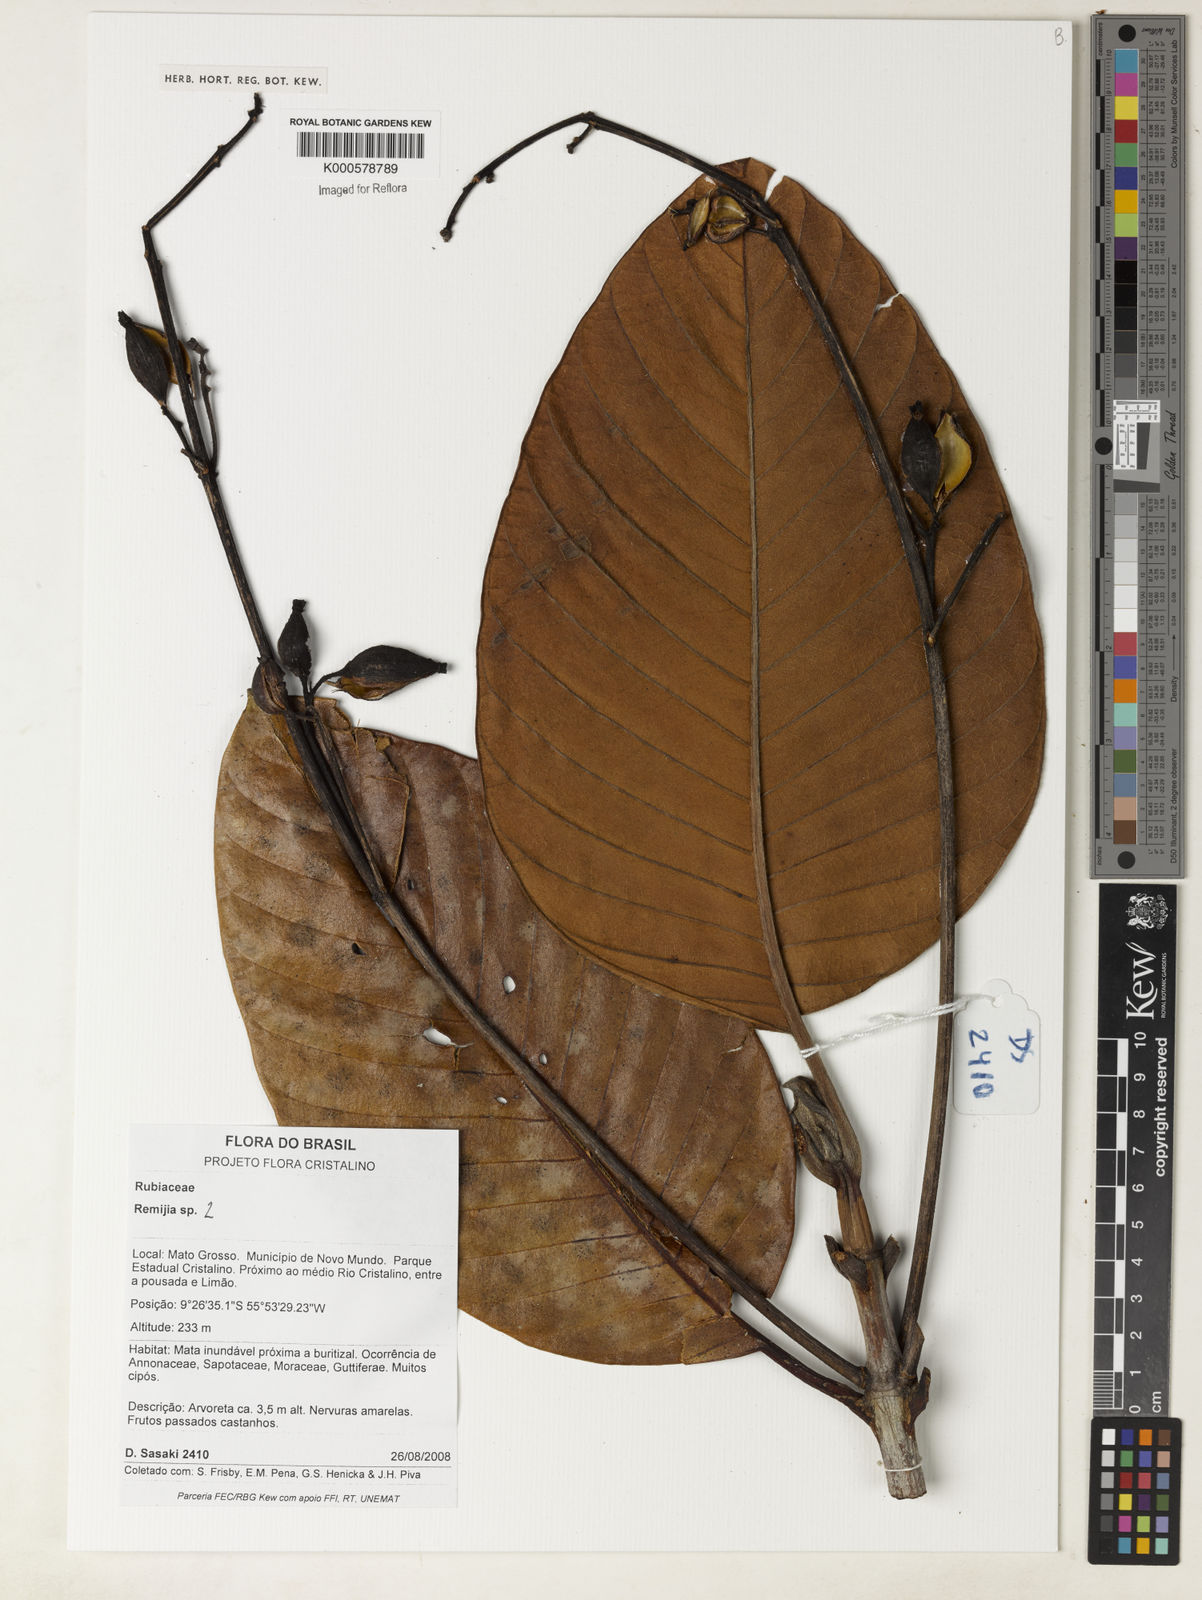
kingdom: Plantae
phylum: Tracheophyta
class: Magnoliopsida
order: Gentianales
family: Rubiaceae
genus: Remijia
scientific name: Remijia
